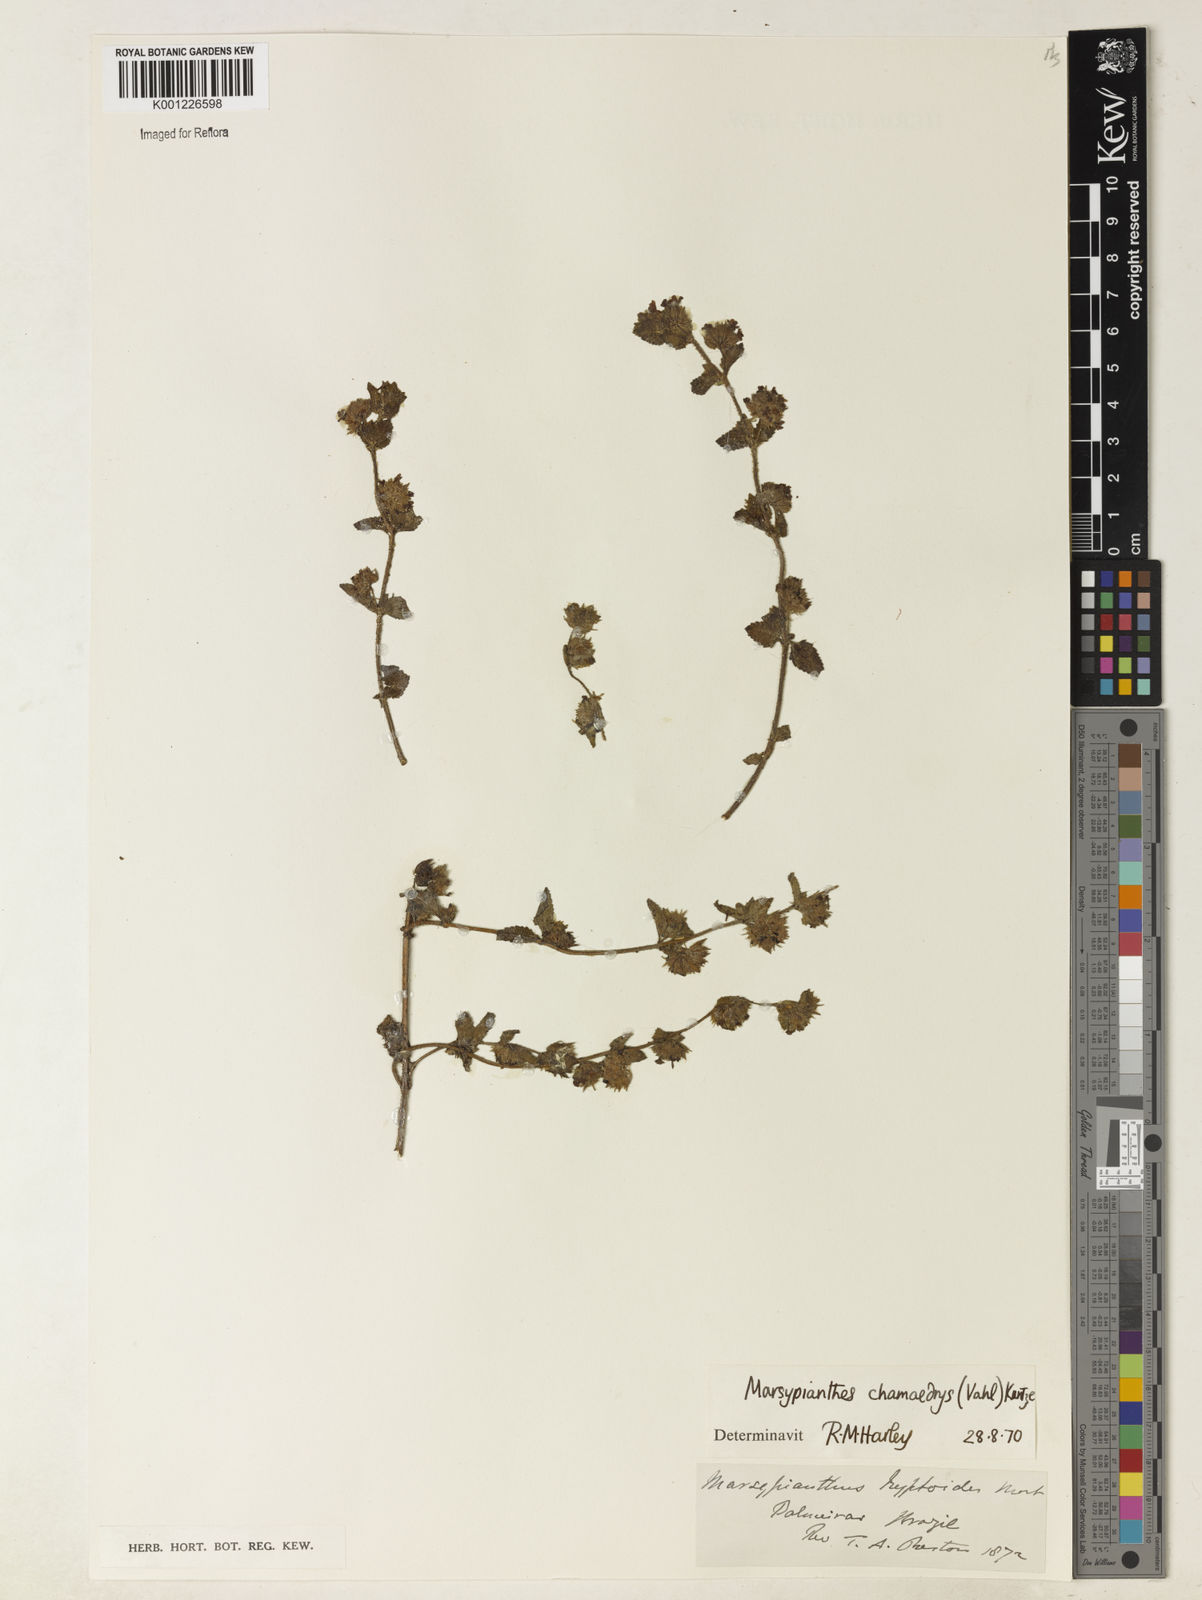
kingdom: Plantae
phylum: Tracheophyta
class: Magnoliopsida
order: Lamiales
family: Lamiaceae
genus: Marsypianthes
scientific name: Marsypianthes chamaedrys
